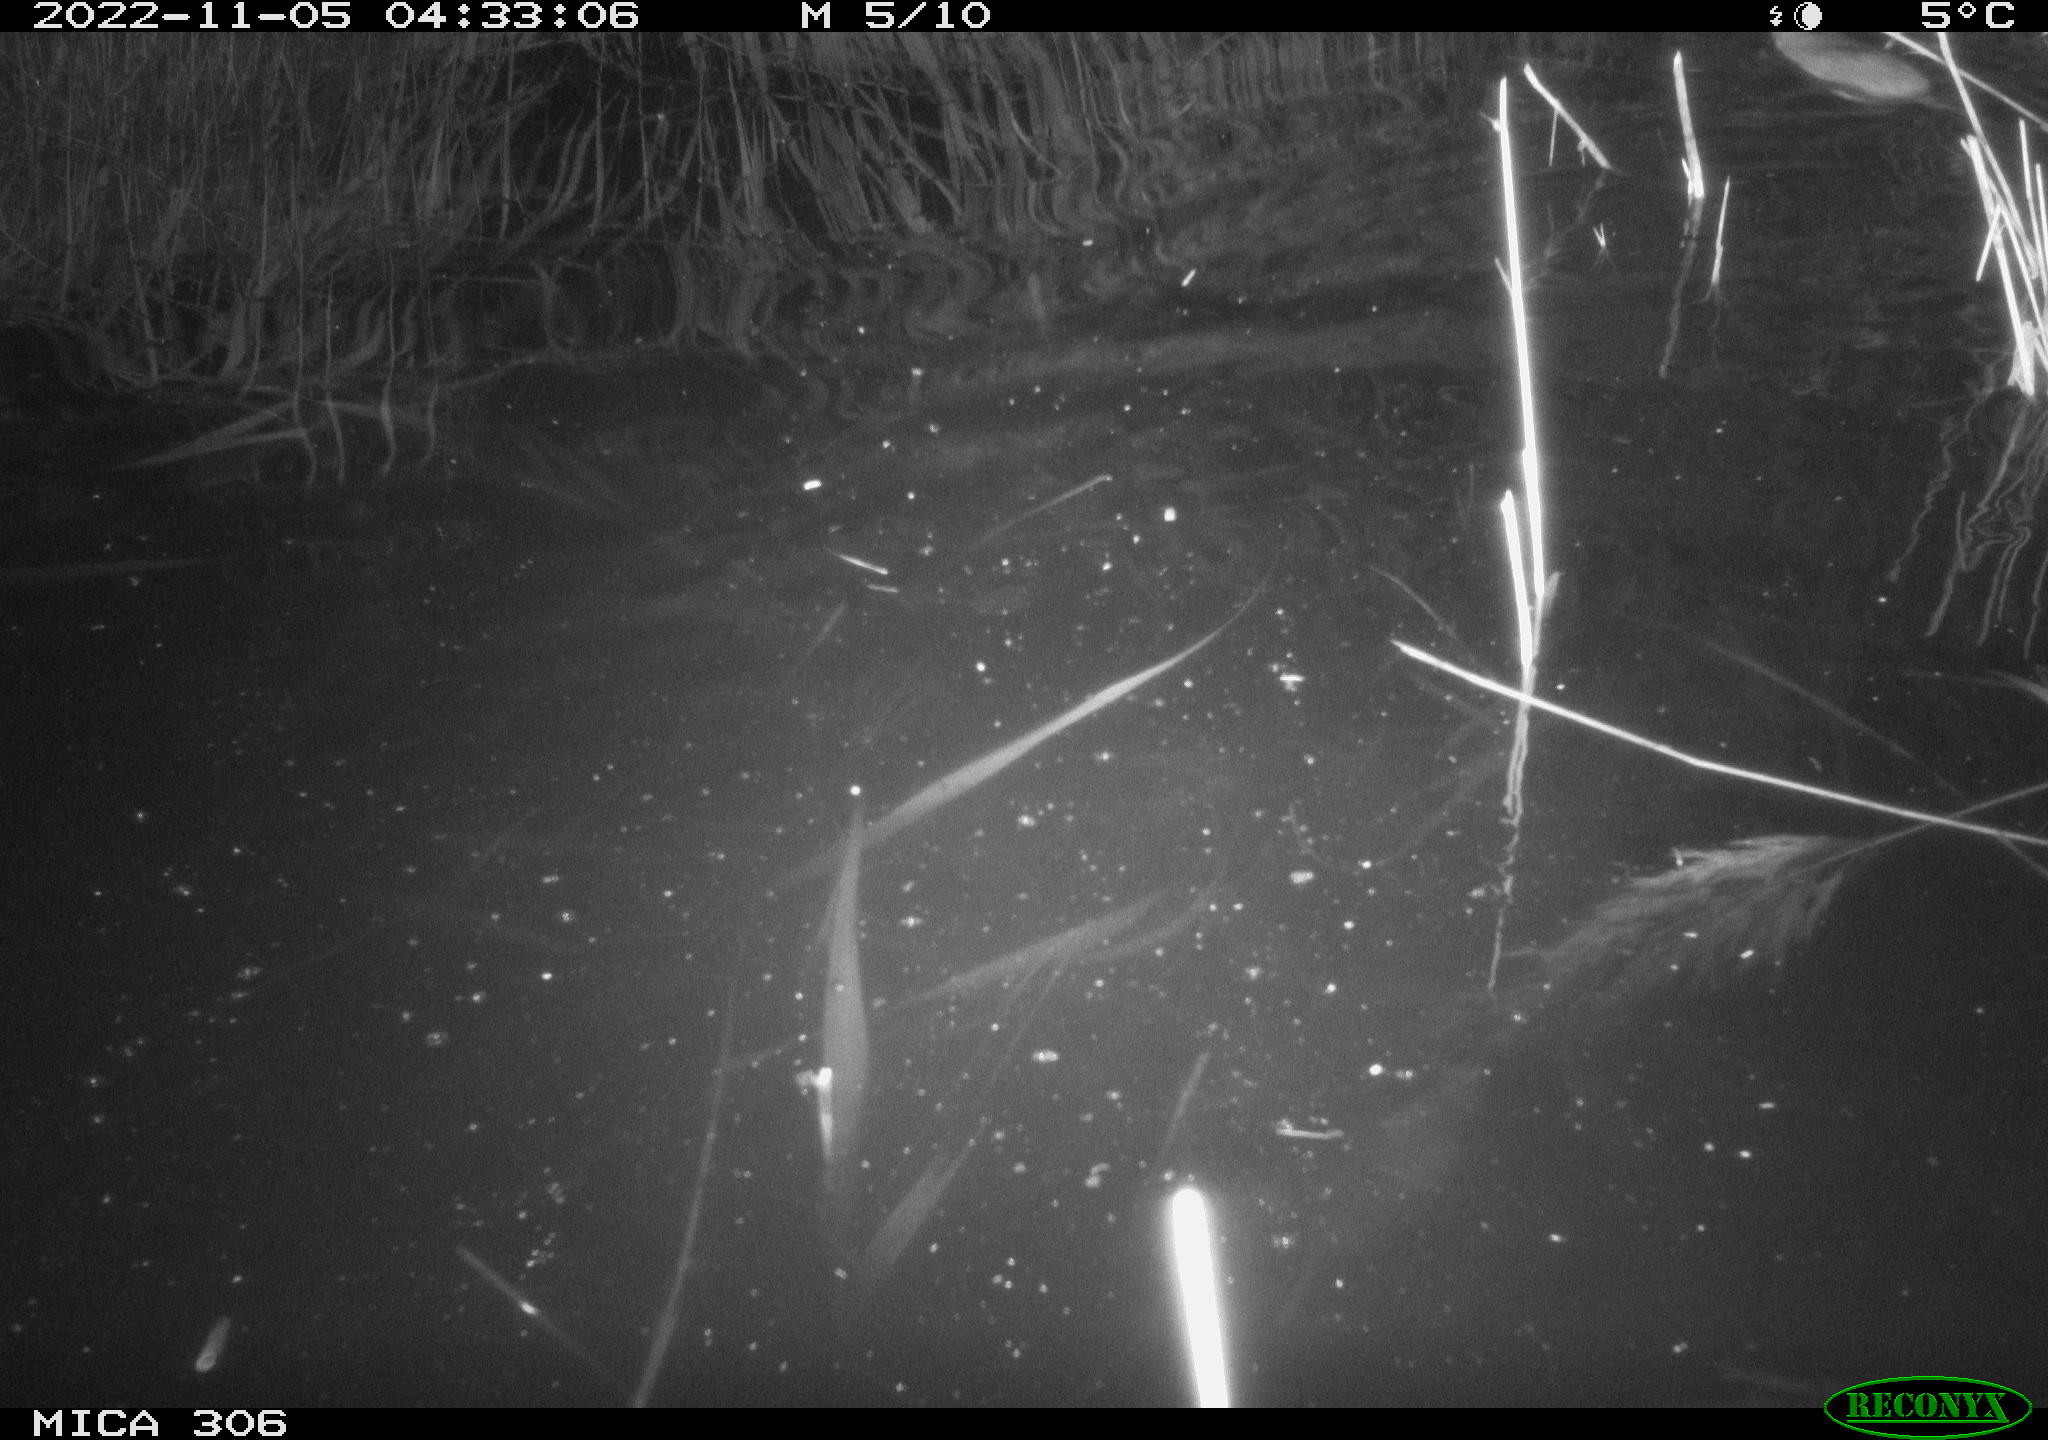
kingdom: Animalia
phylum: Chordata
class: Mammalia
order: Rodentia
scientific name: Rodentia
